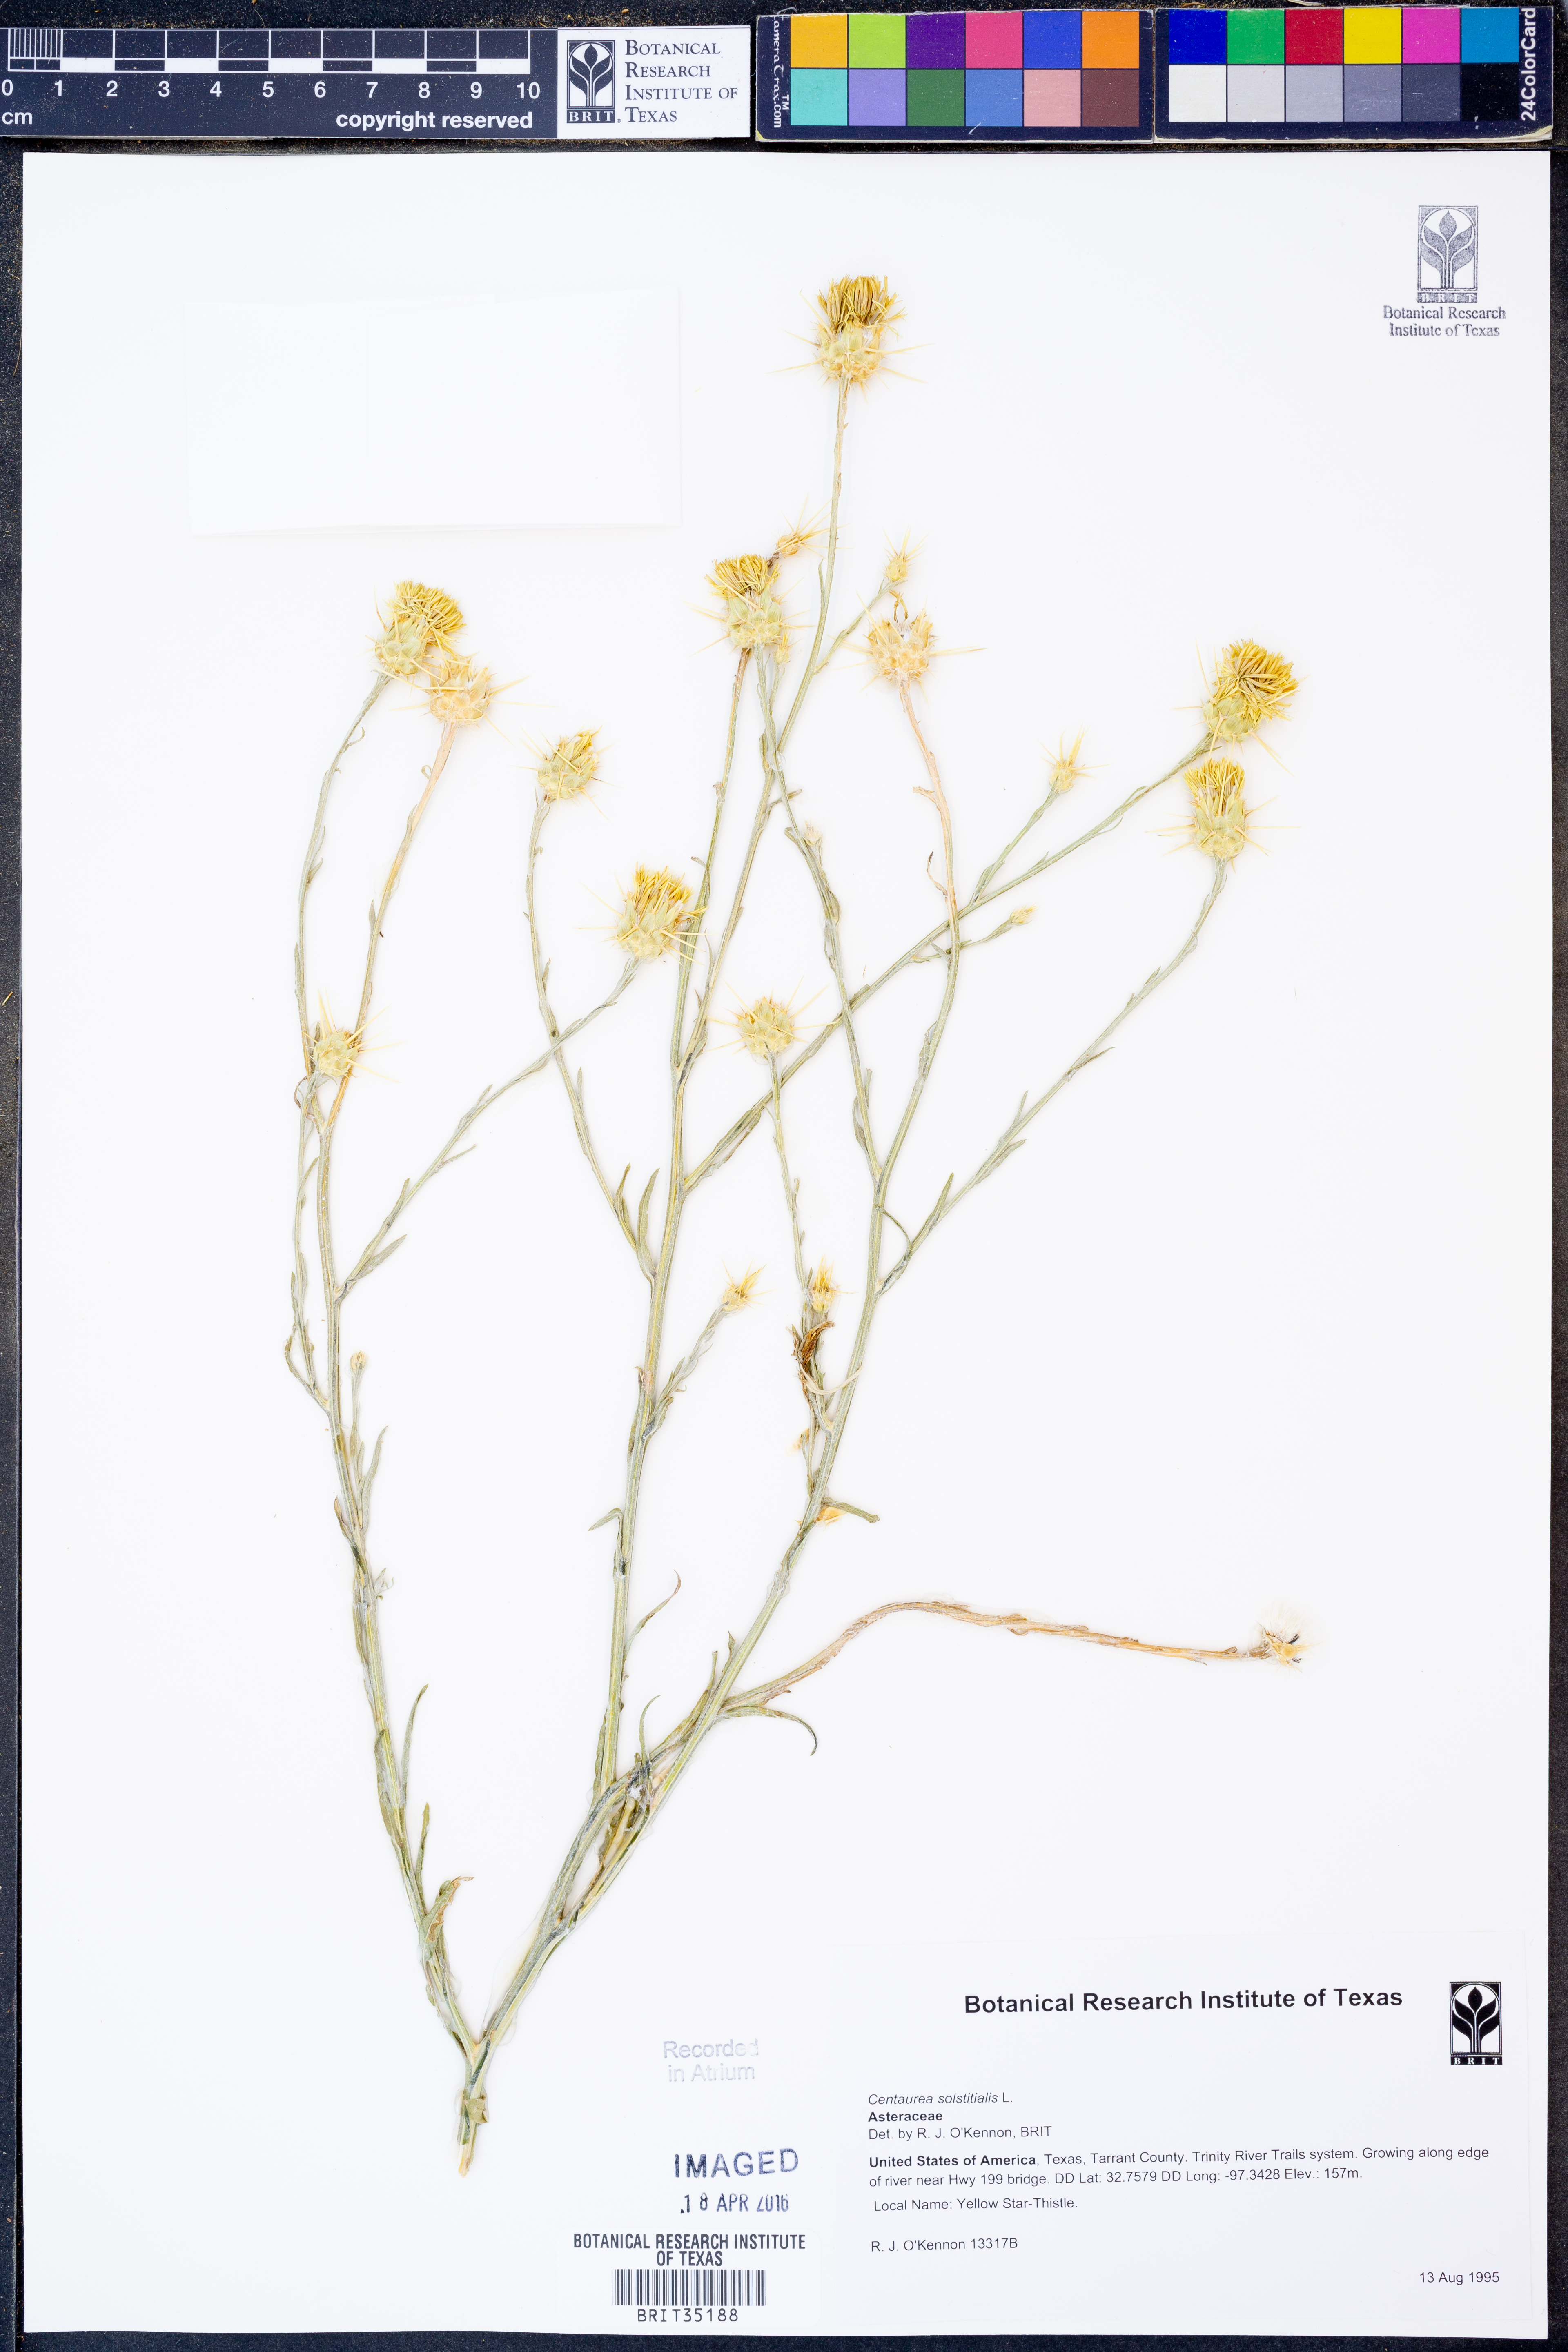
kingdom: Plantae
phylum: Tracheophyta
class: Magnoliopsida
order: Asterales
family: Asteraceae
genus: Centaurea
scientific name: Centaurea solstitialis
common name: Yellow star-thistle
